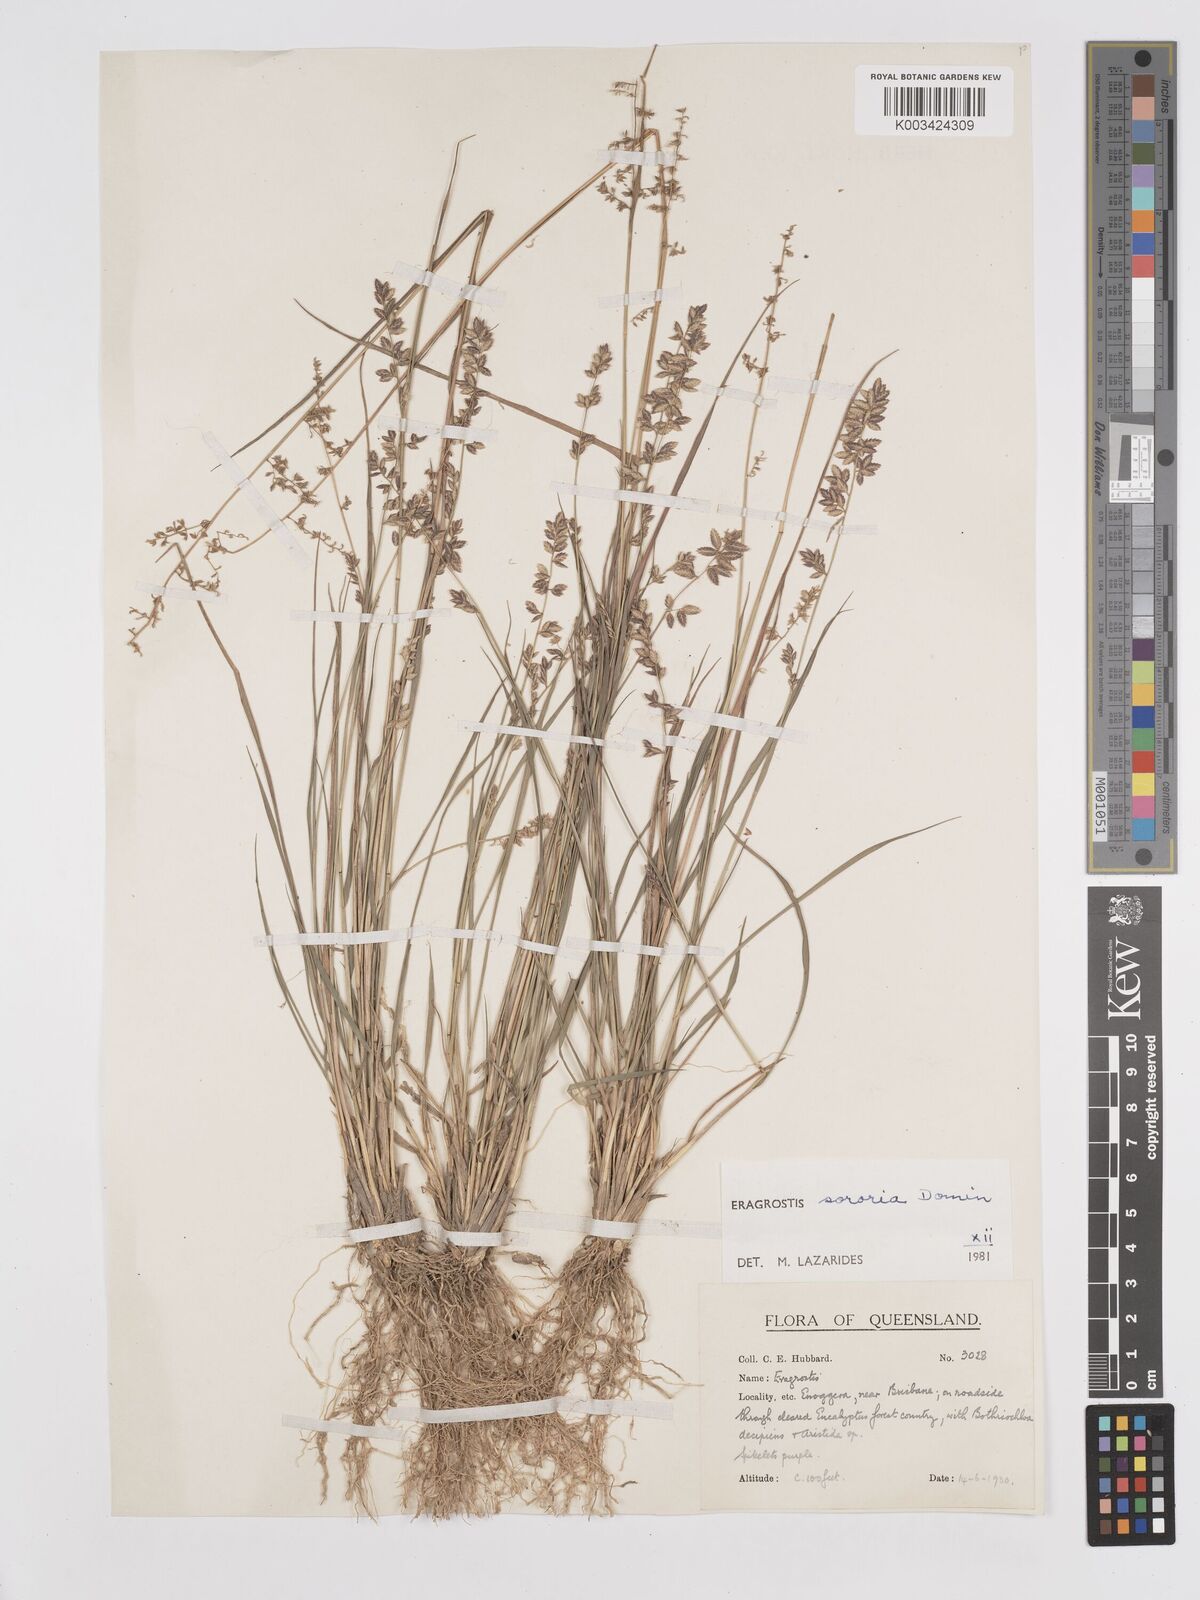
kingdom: Plantae
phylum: Tracheophyta
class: Liliopsida
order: Poales
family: Poaceae
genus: Eragrostis
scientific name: Eragrostis sororia
